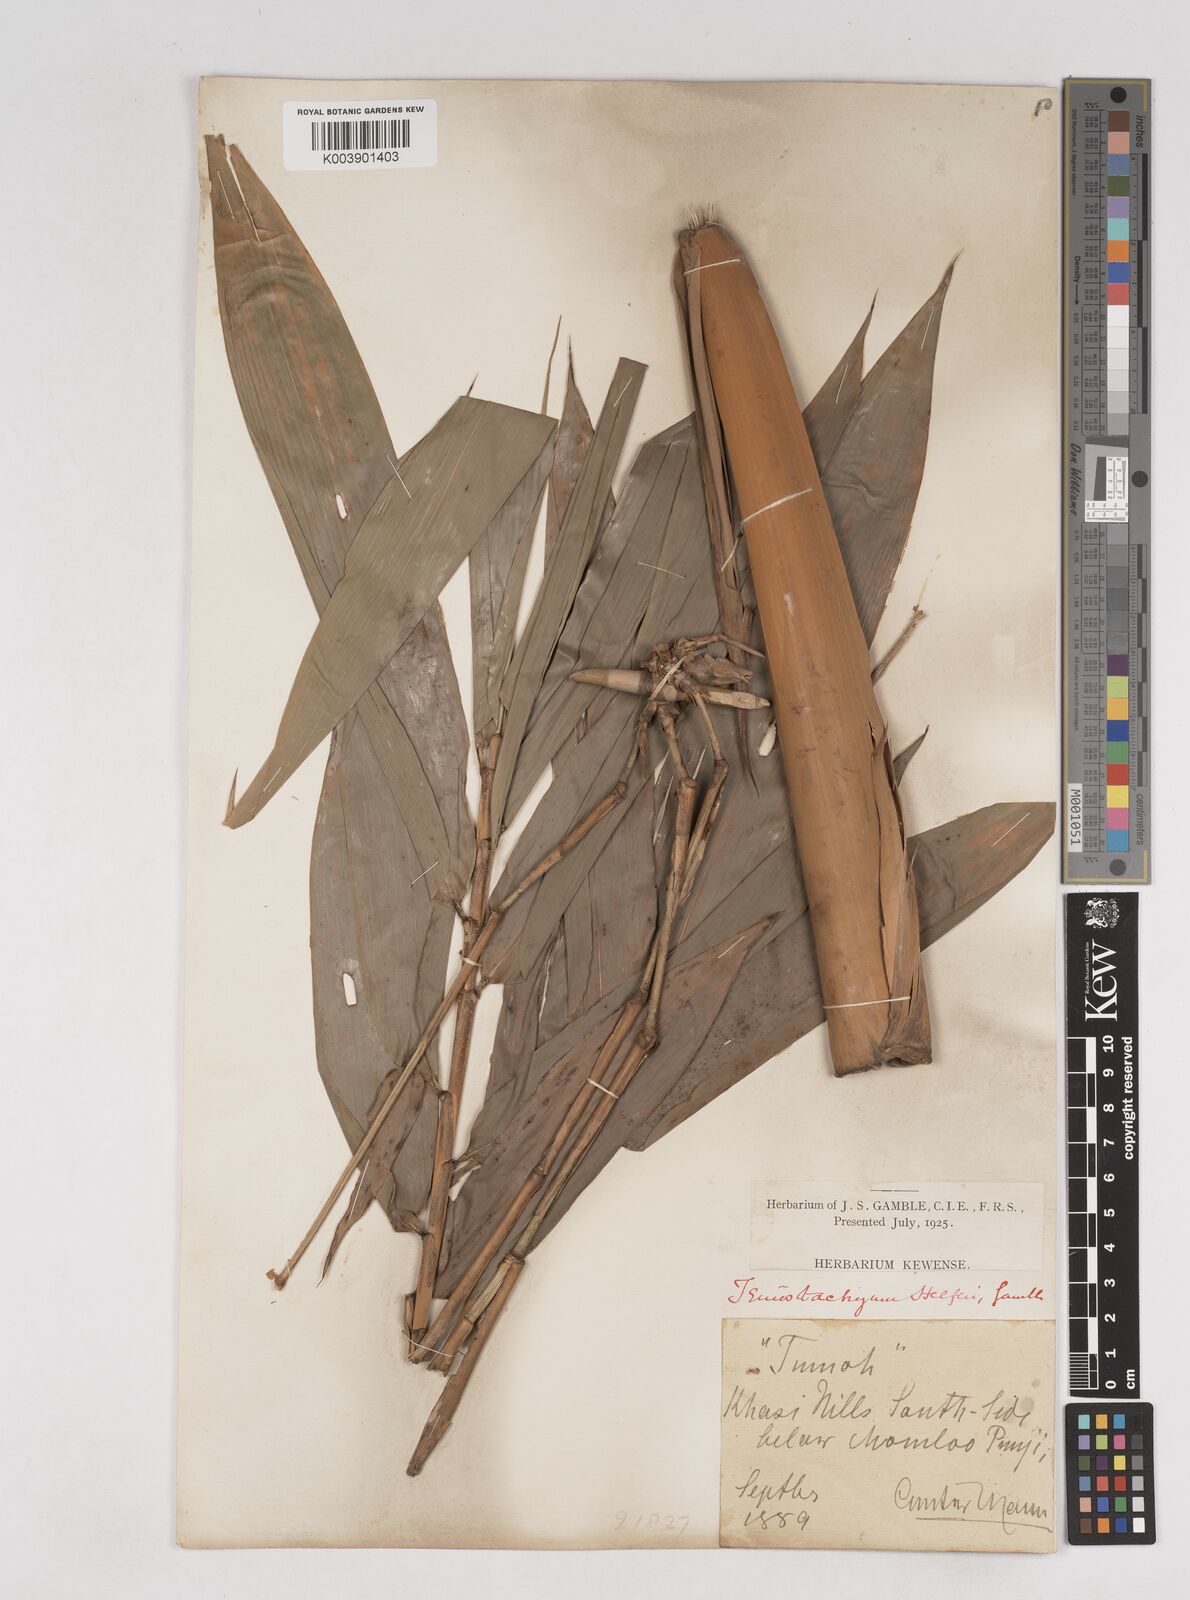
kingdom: Plantae
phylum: Tracheophyta
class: Liliopsida
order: Poales
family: Poaceae
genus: Schizostachyum
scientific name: Schizostachyum helferi
